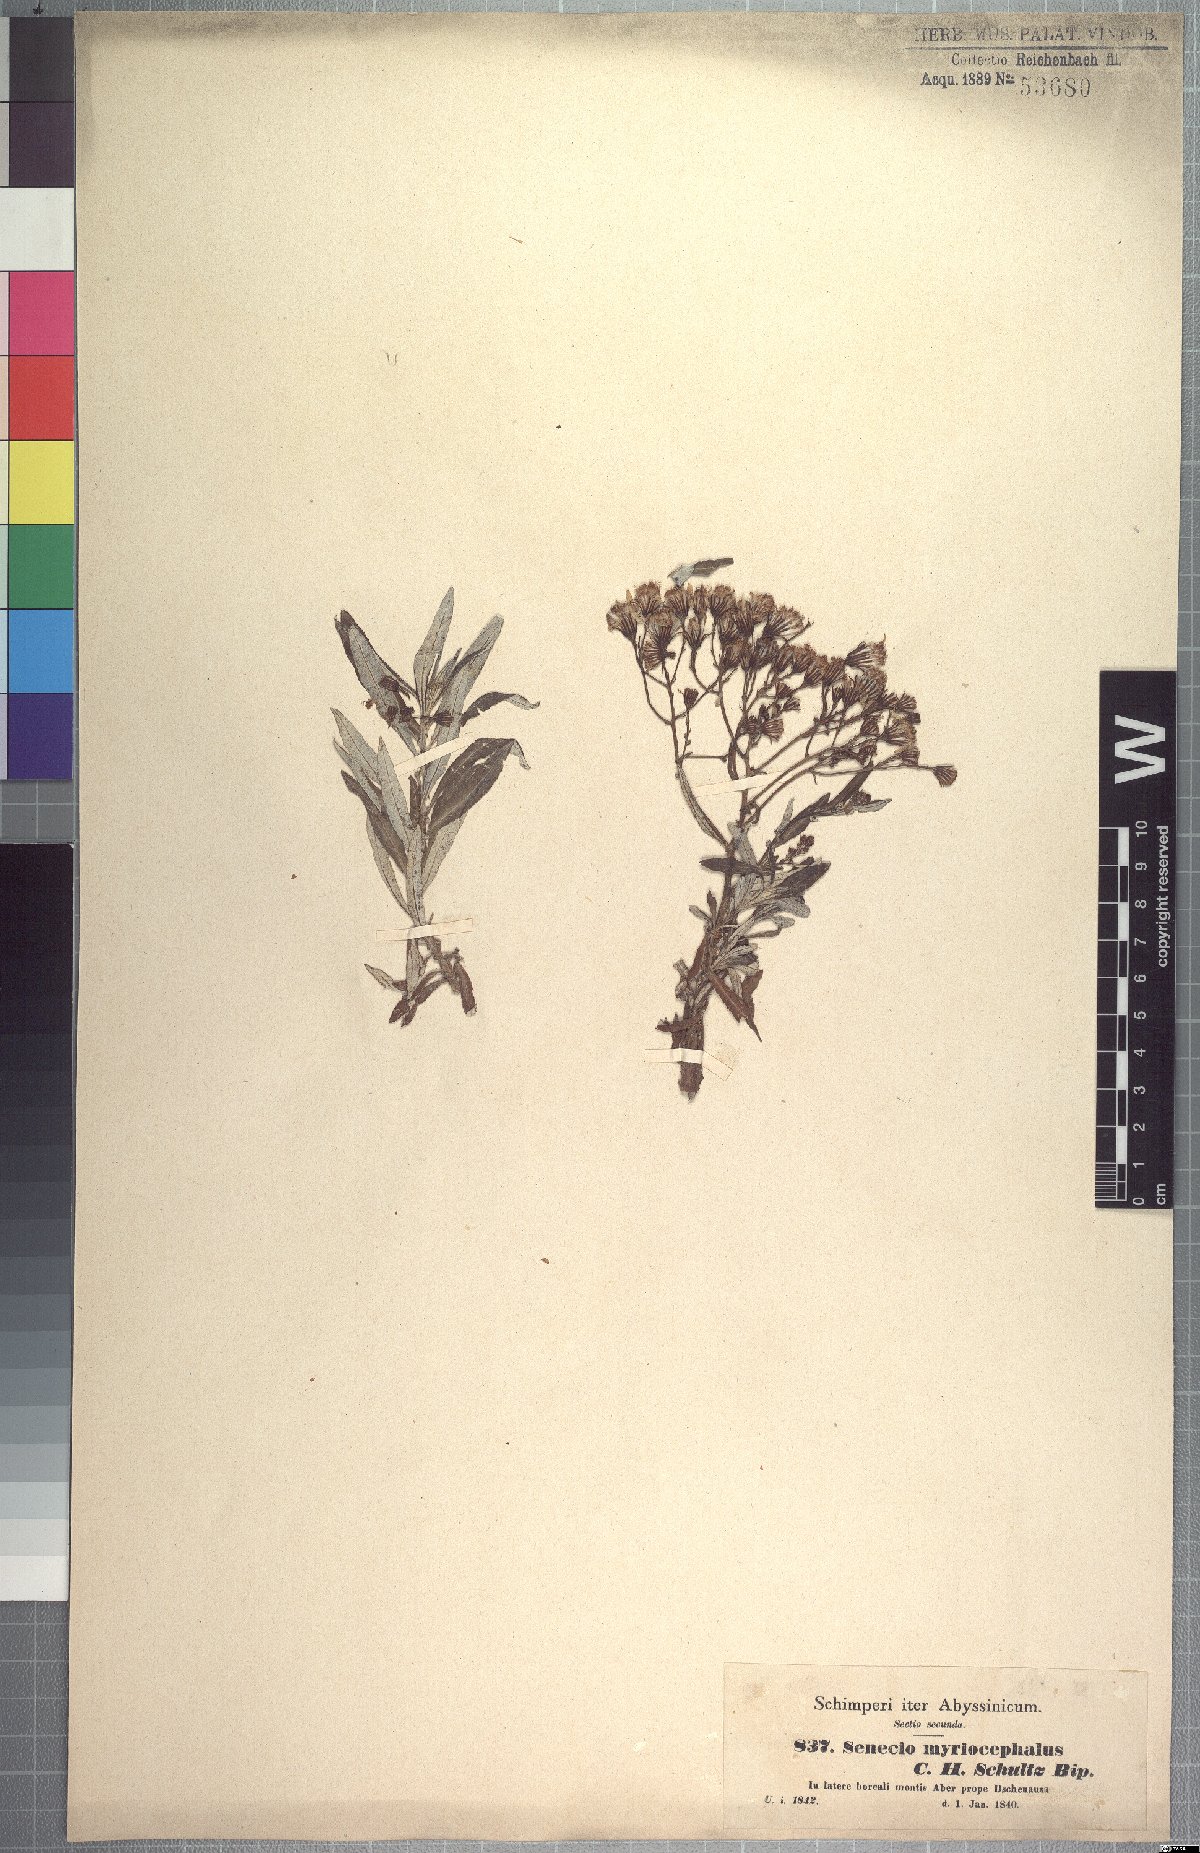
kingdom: Plantae
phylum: Tracheophyta
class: Magnoliopsida
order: Asterales
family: Asteraceae
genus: Senecio
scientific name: Senecio myriocephalus
